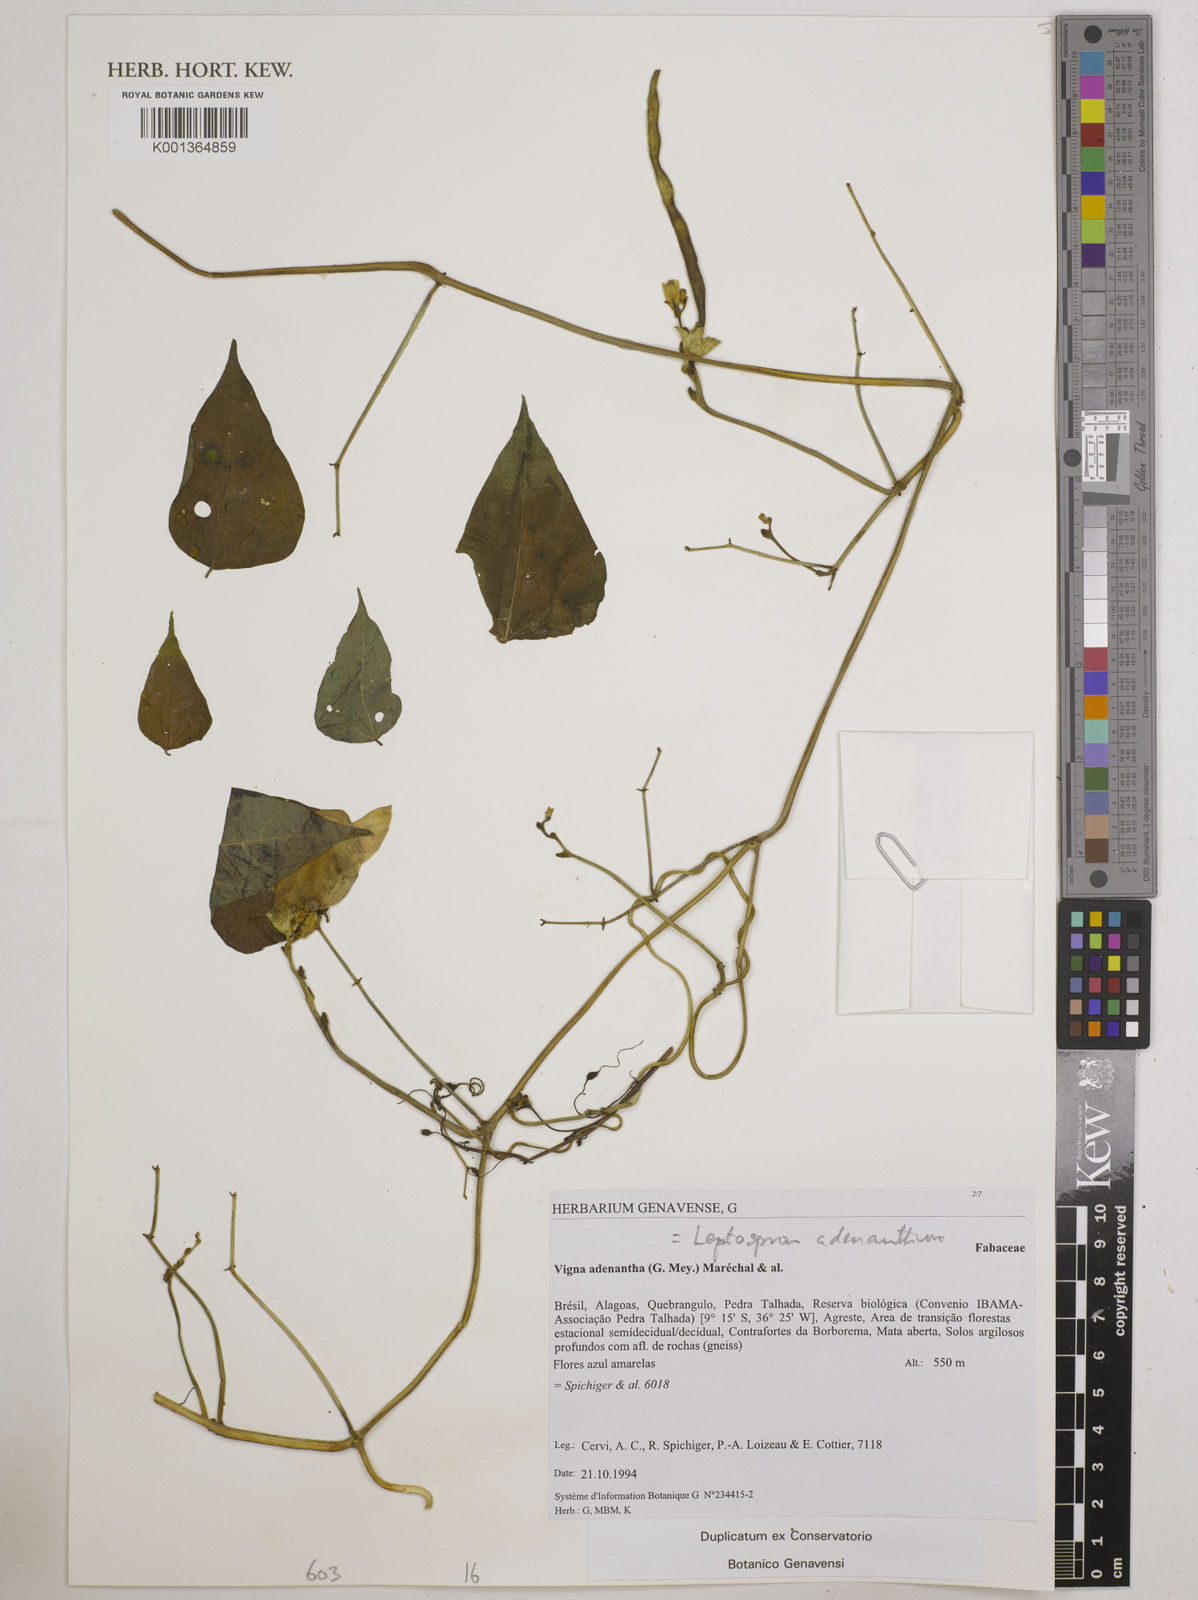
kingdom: Plantae
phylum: Tracheophyta
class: Magnoliopsida
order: Fabales
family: Fabaceae
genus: Leptospron
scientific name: Leptospron adenanthum
